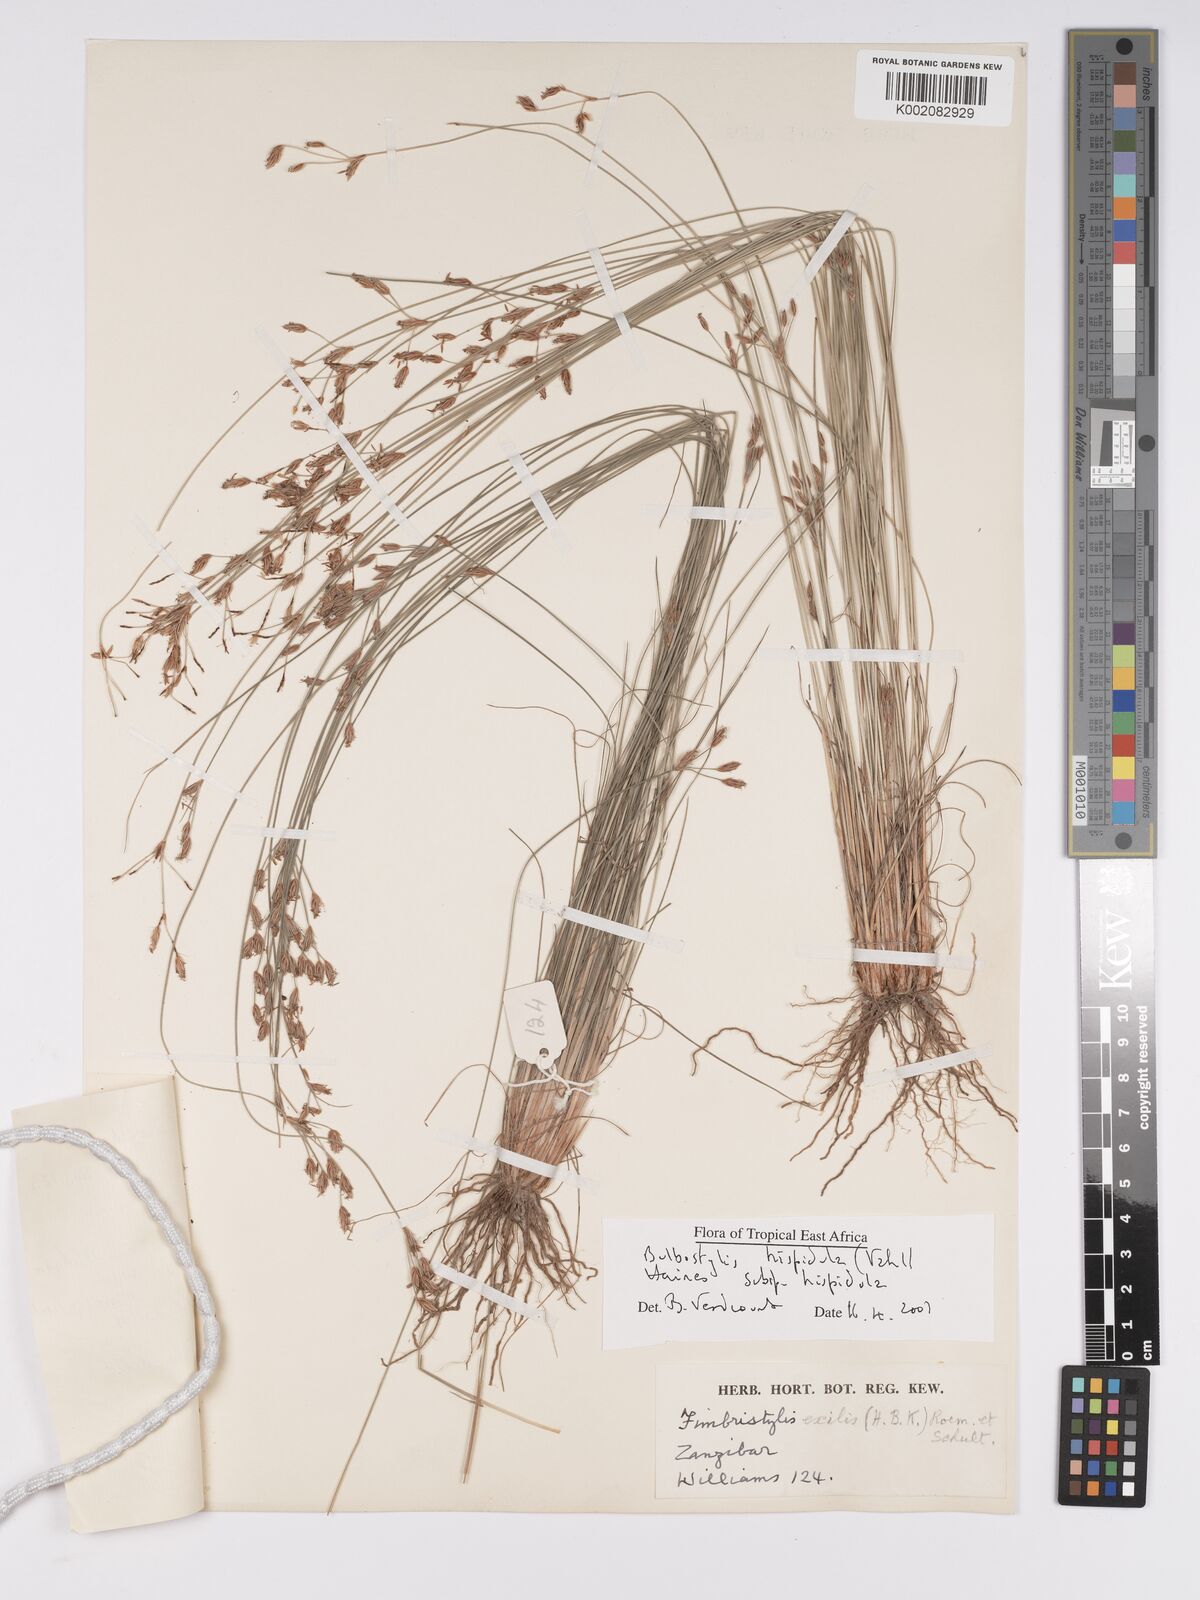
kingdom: Plantae
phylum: Tracheophyta
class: Liliopsida
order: Poales
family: Cyperaceae
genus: Bulbostylis
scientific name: Bulbostylis hispidula
